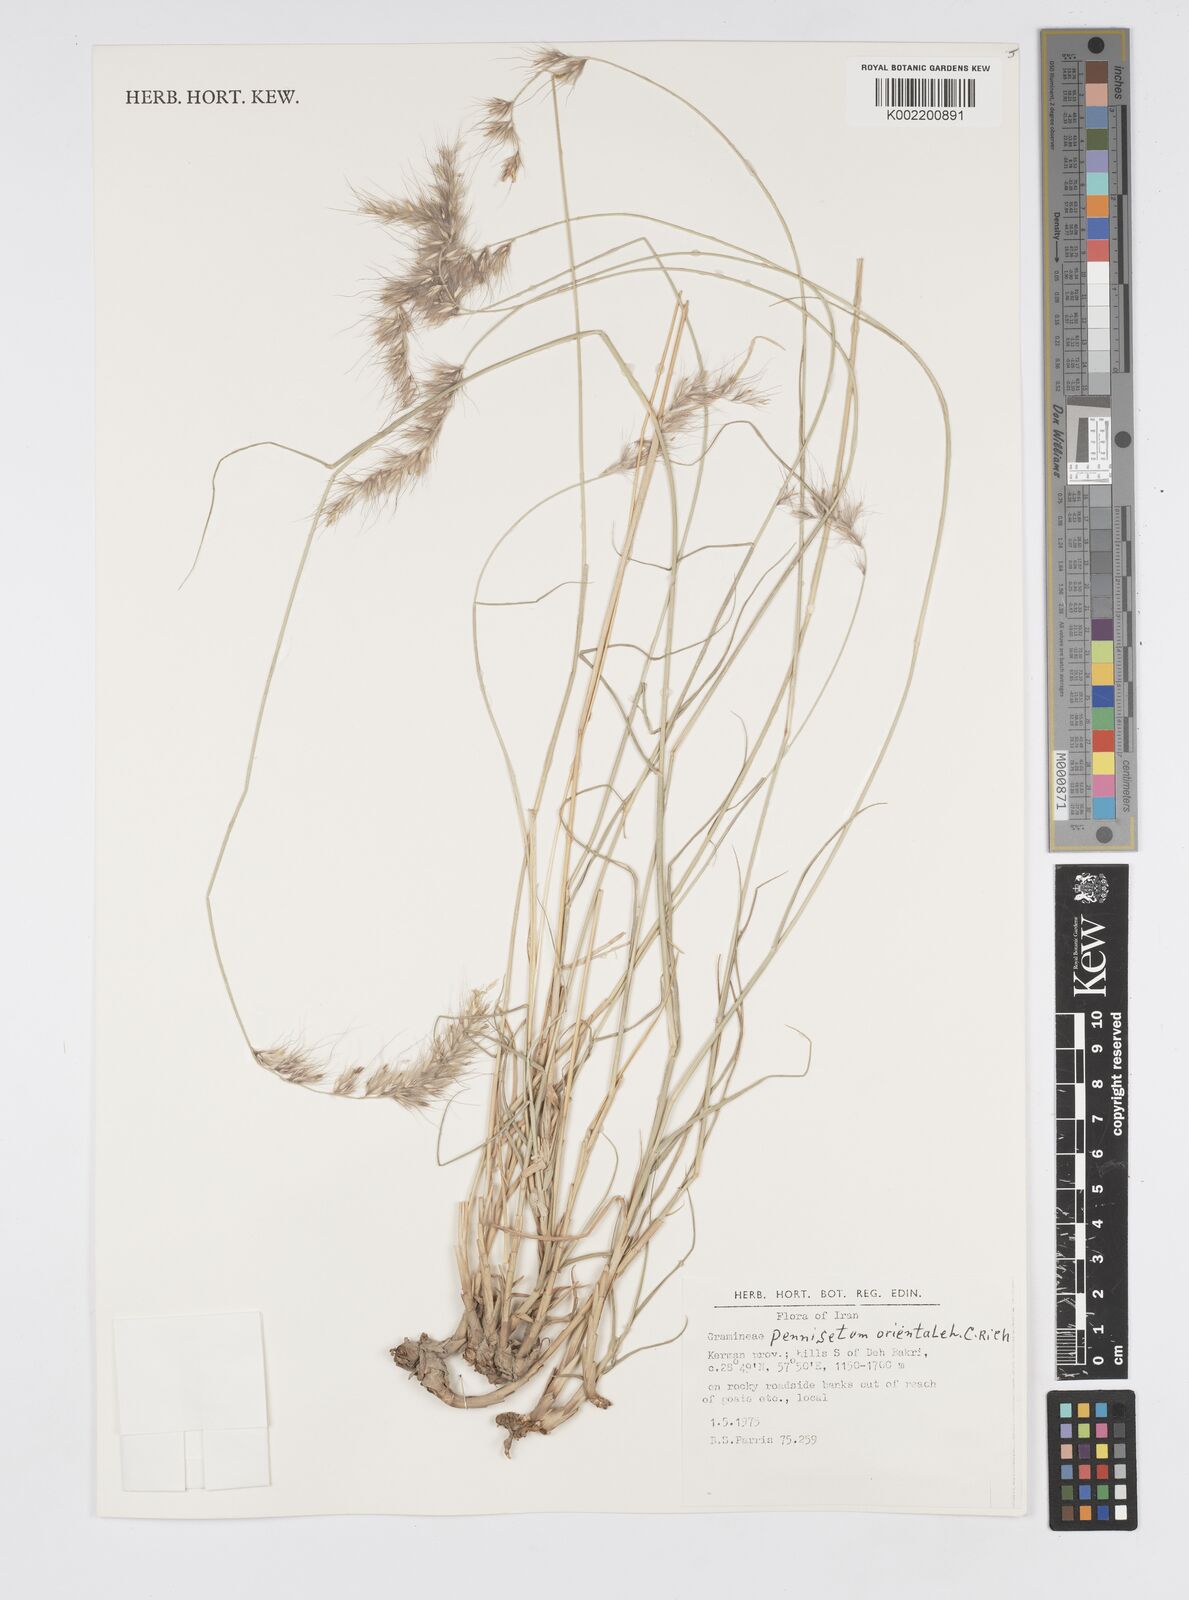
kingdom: Plantae
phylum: Tracheophyta
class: Liliopsida
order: Poales
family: Poaceae
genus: Cenchrus
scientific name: Cenchrus orientalis
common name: Oriental fountain grass
